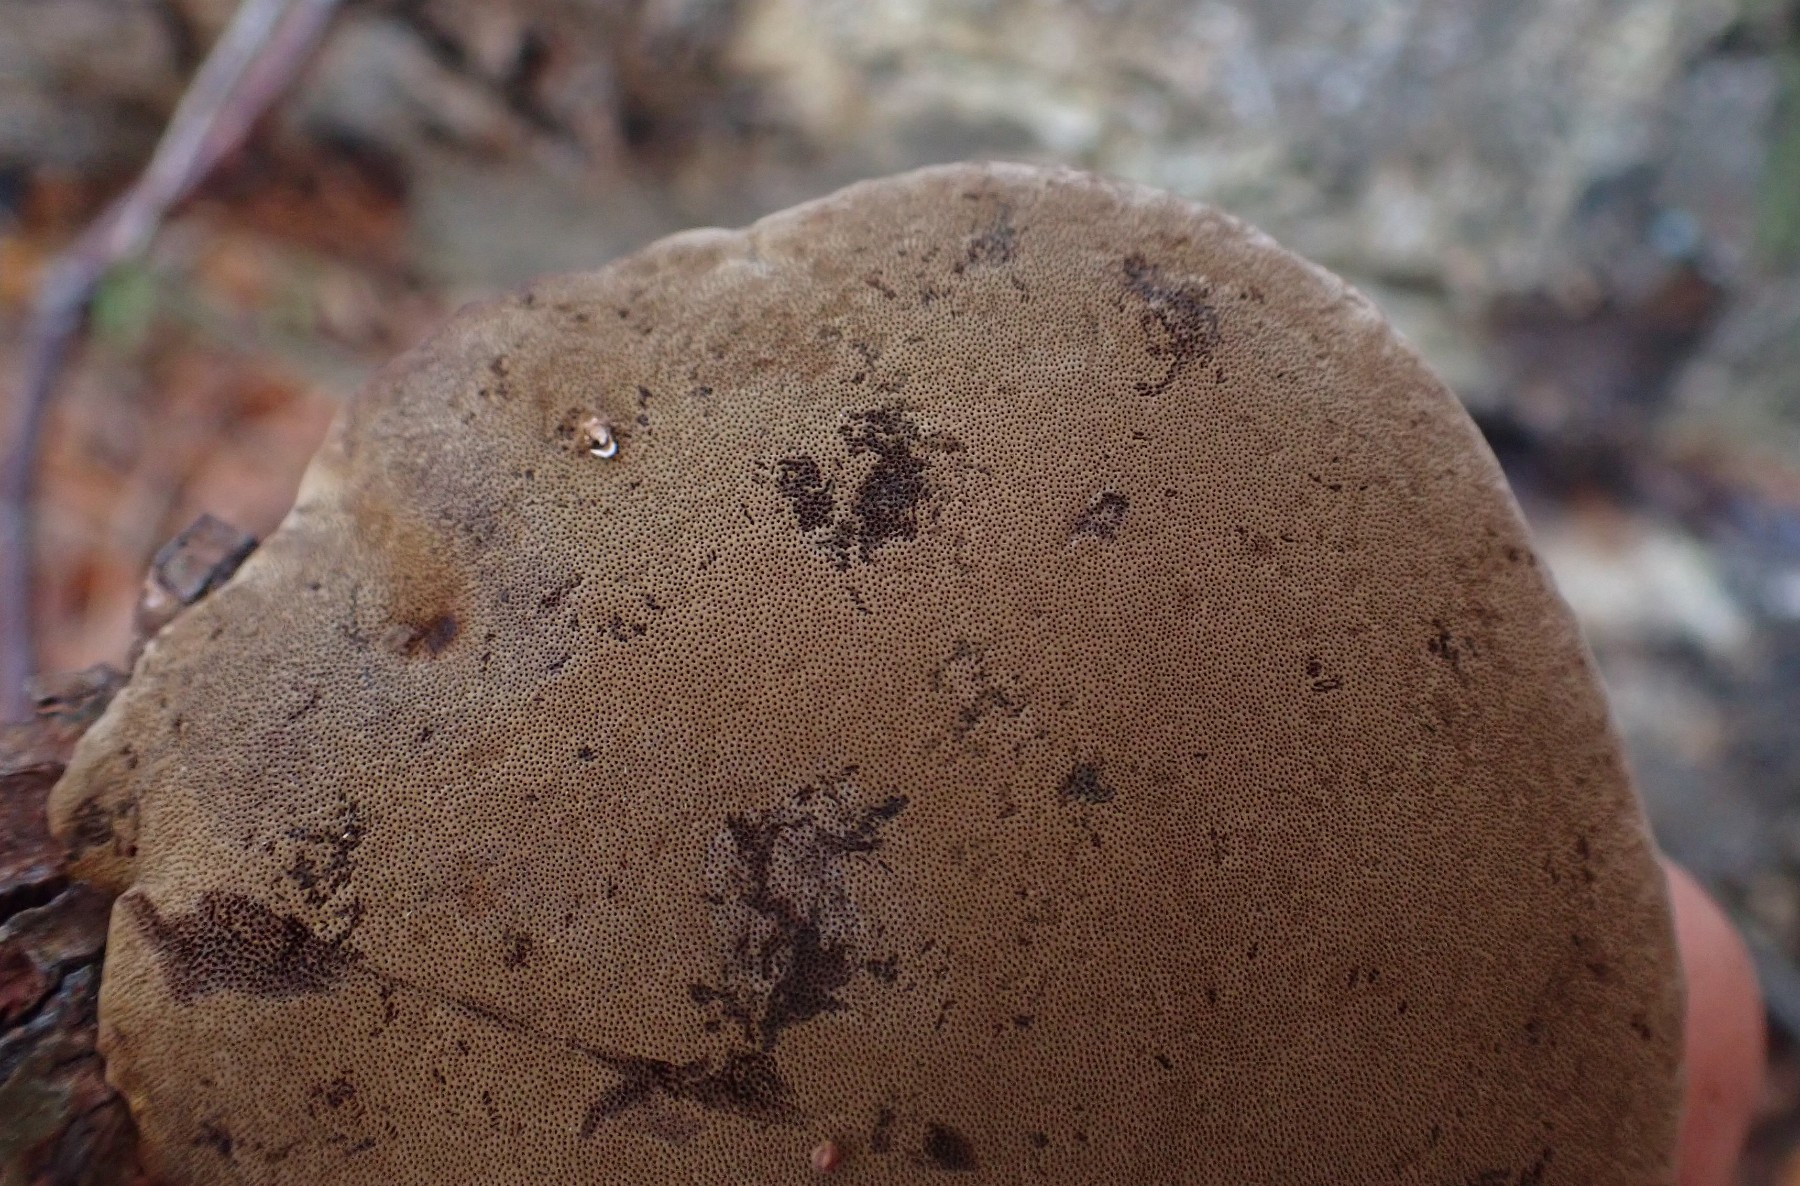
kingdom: Fungi
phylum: Basidiomycota
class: Agaricomycetes
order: Hymenochaetales
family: Hymenochaetaceae
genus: Phellinus
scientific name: Phellinus igniarius
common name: almindelig ildporesvamp
